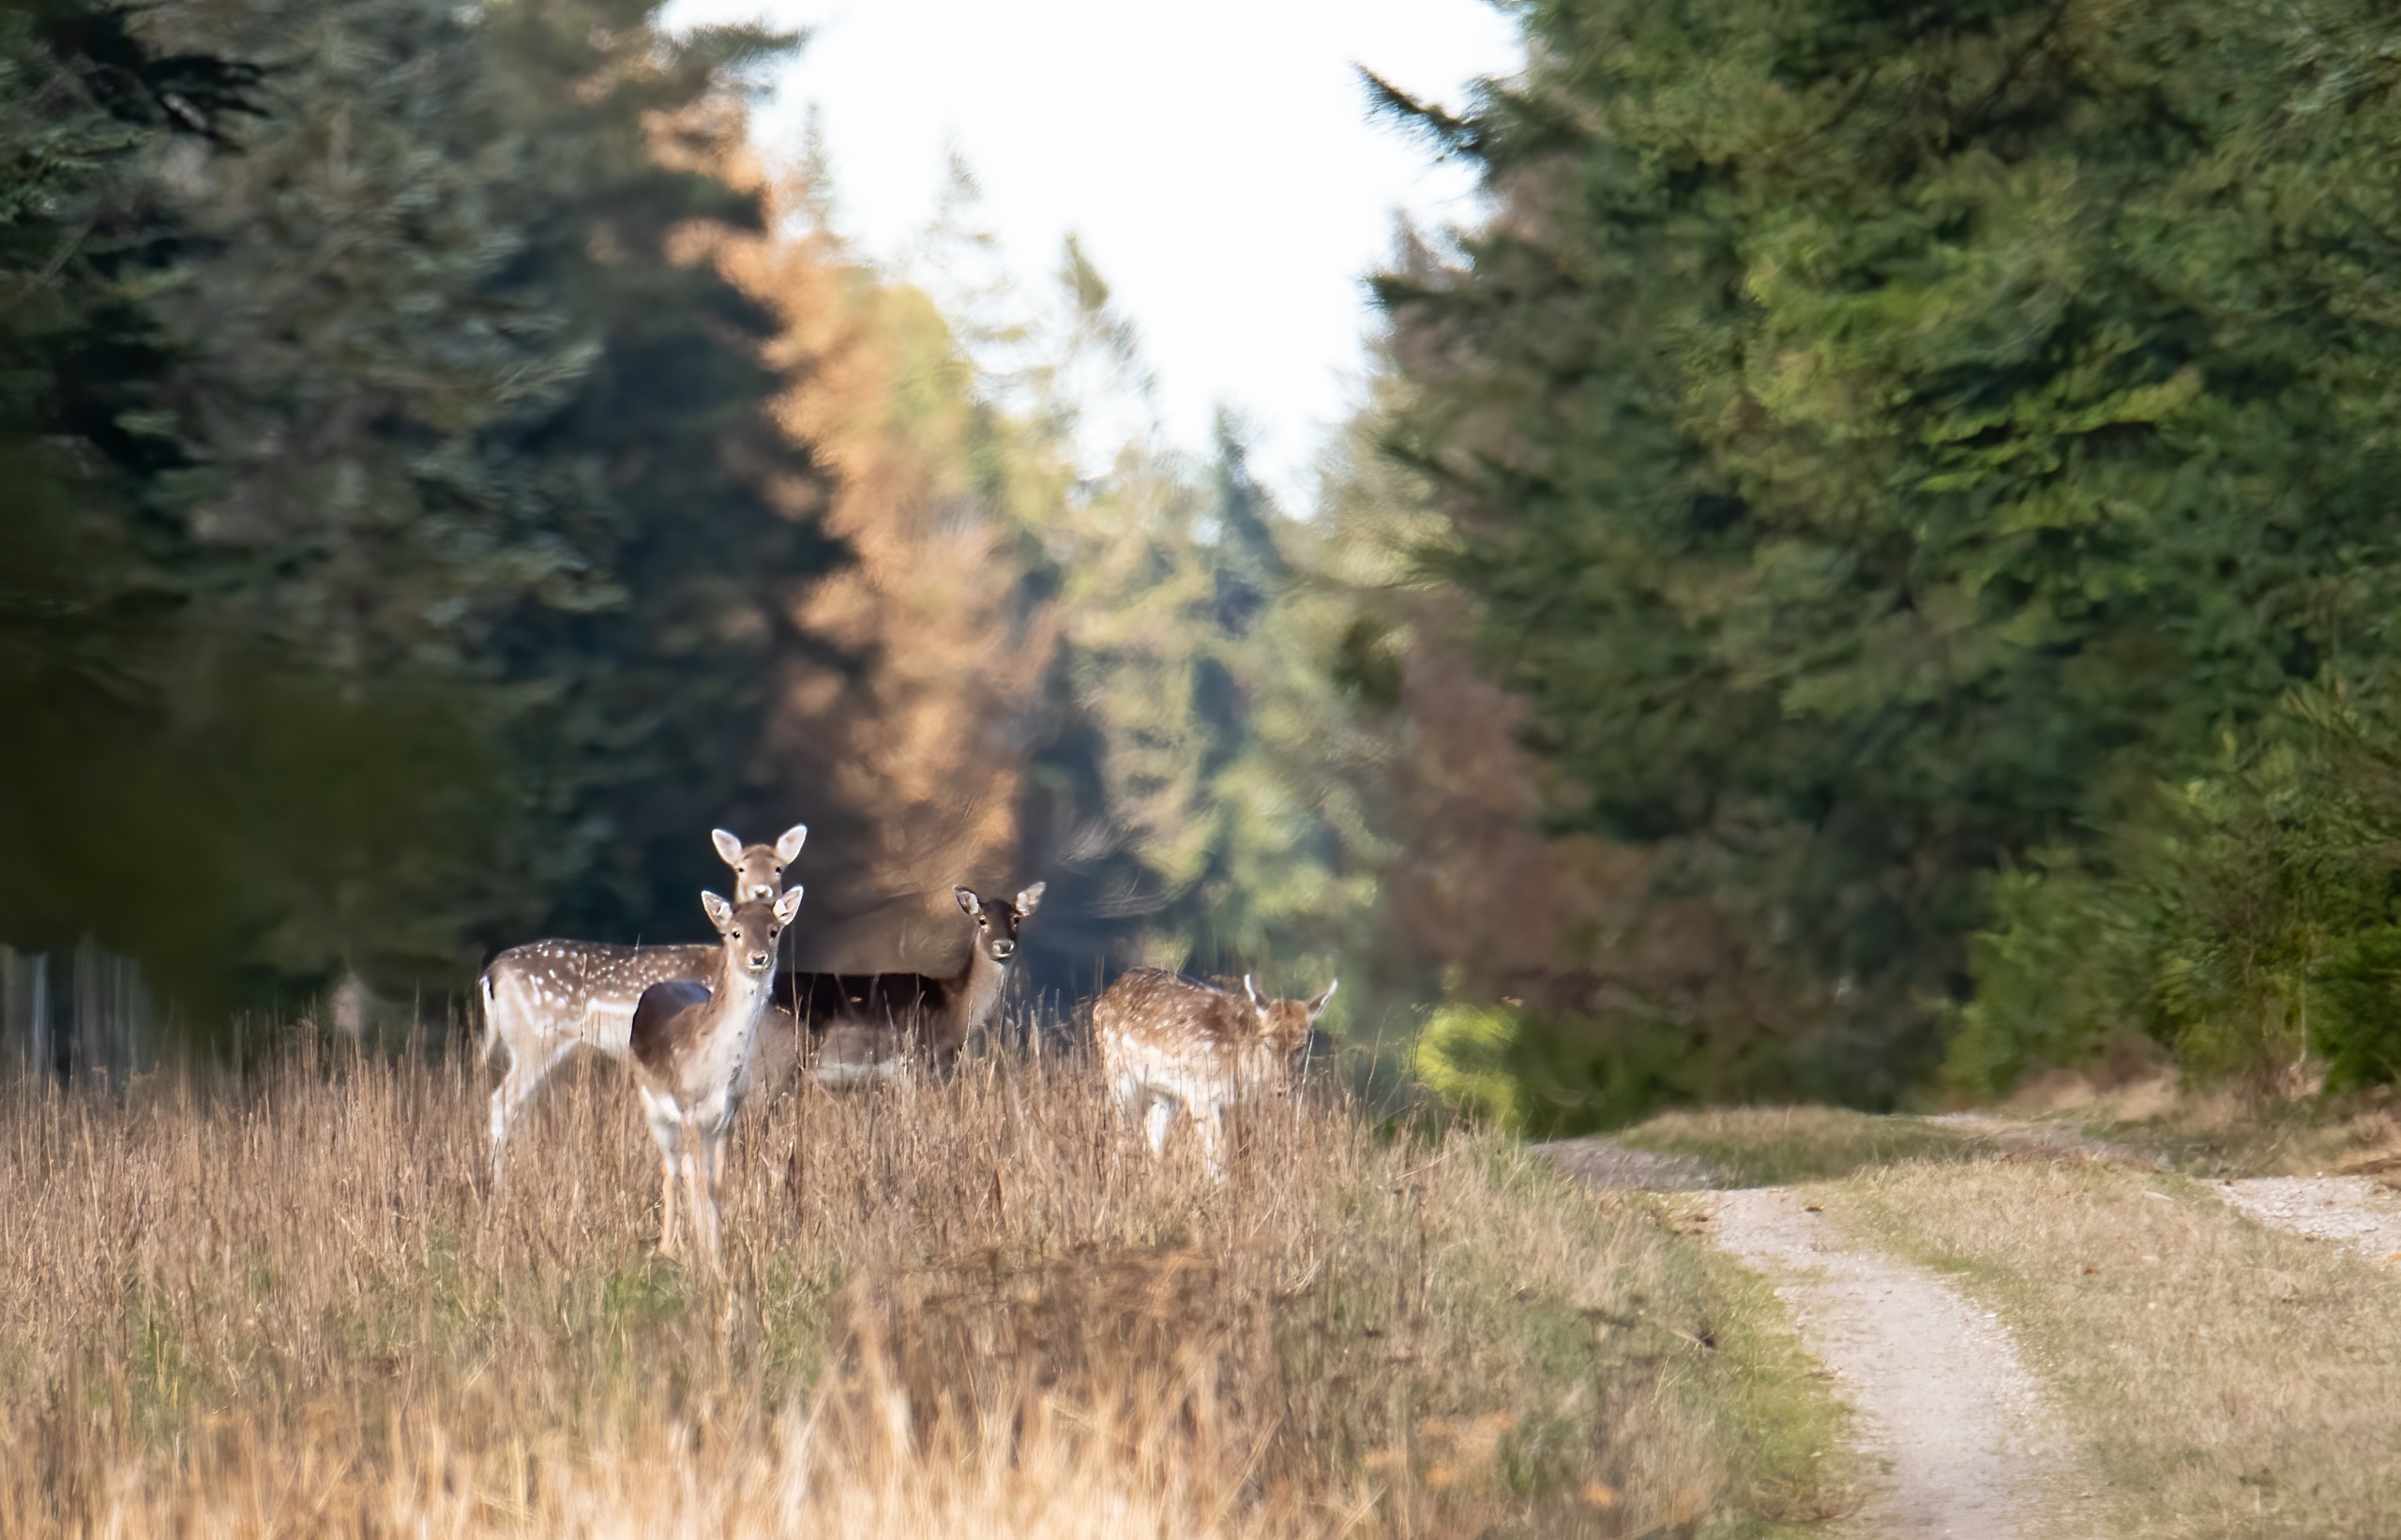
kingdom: Animalia
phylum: Chordata
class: Mammalia
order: Artiodactyla
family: Cervidae
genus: Dama
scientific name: Dama dama
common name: Dådyr
